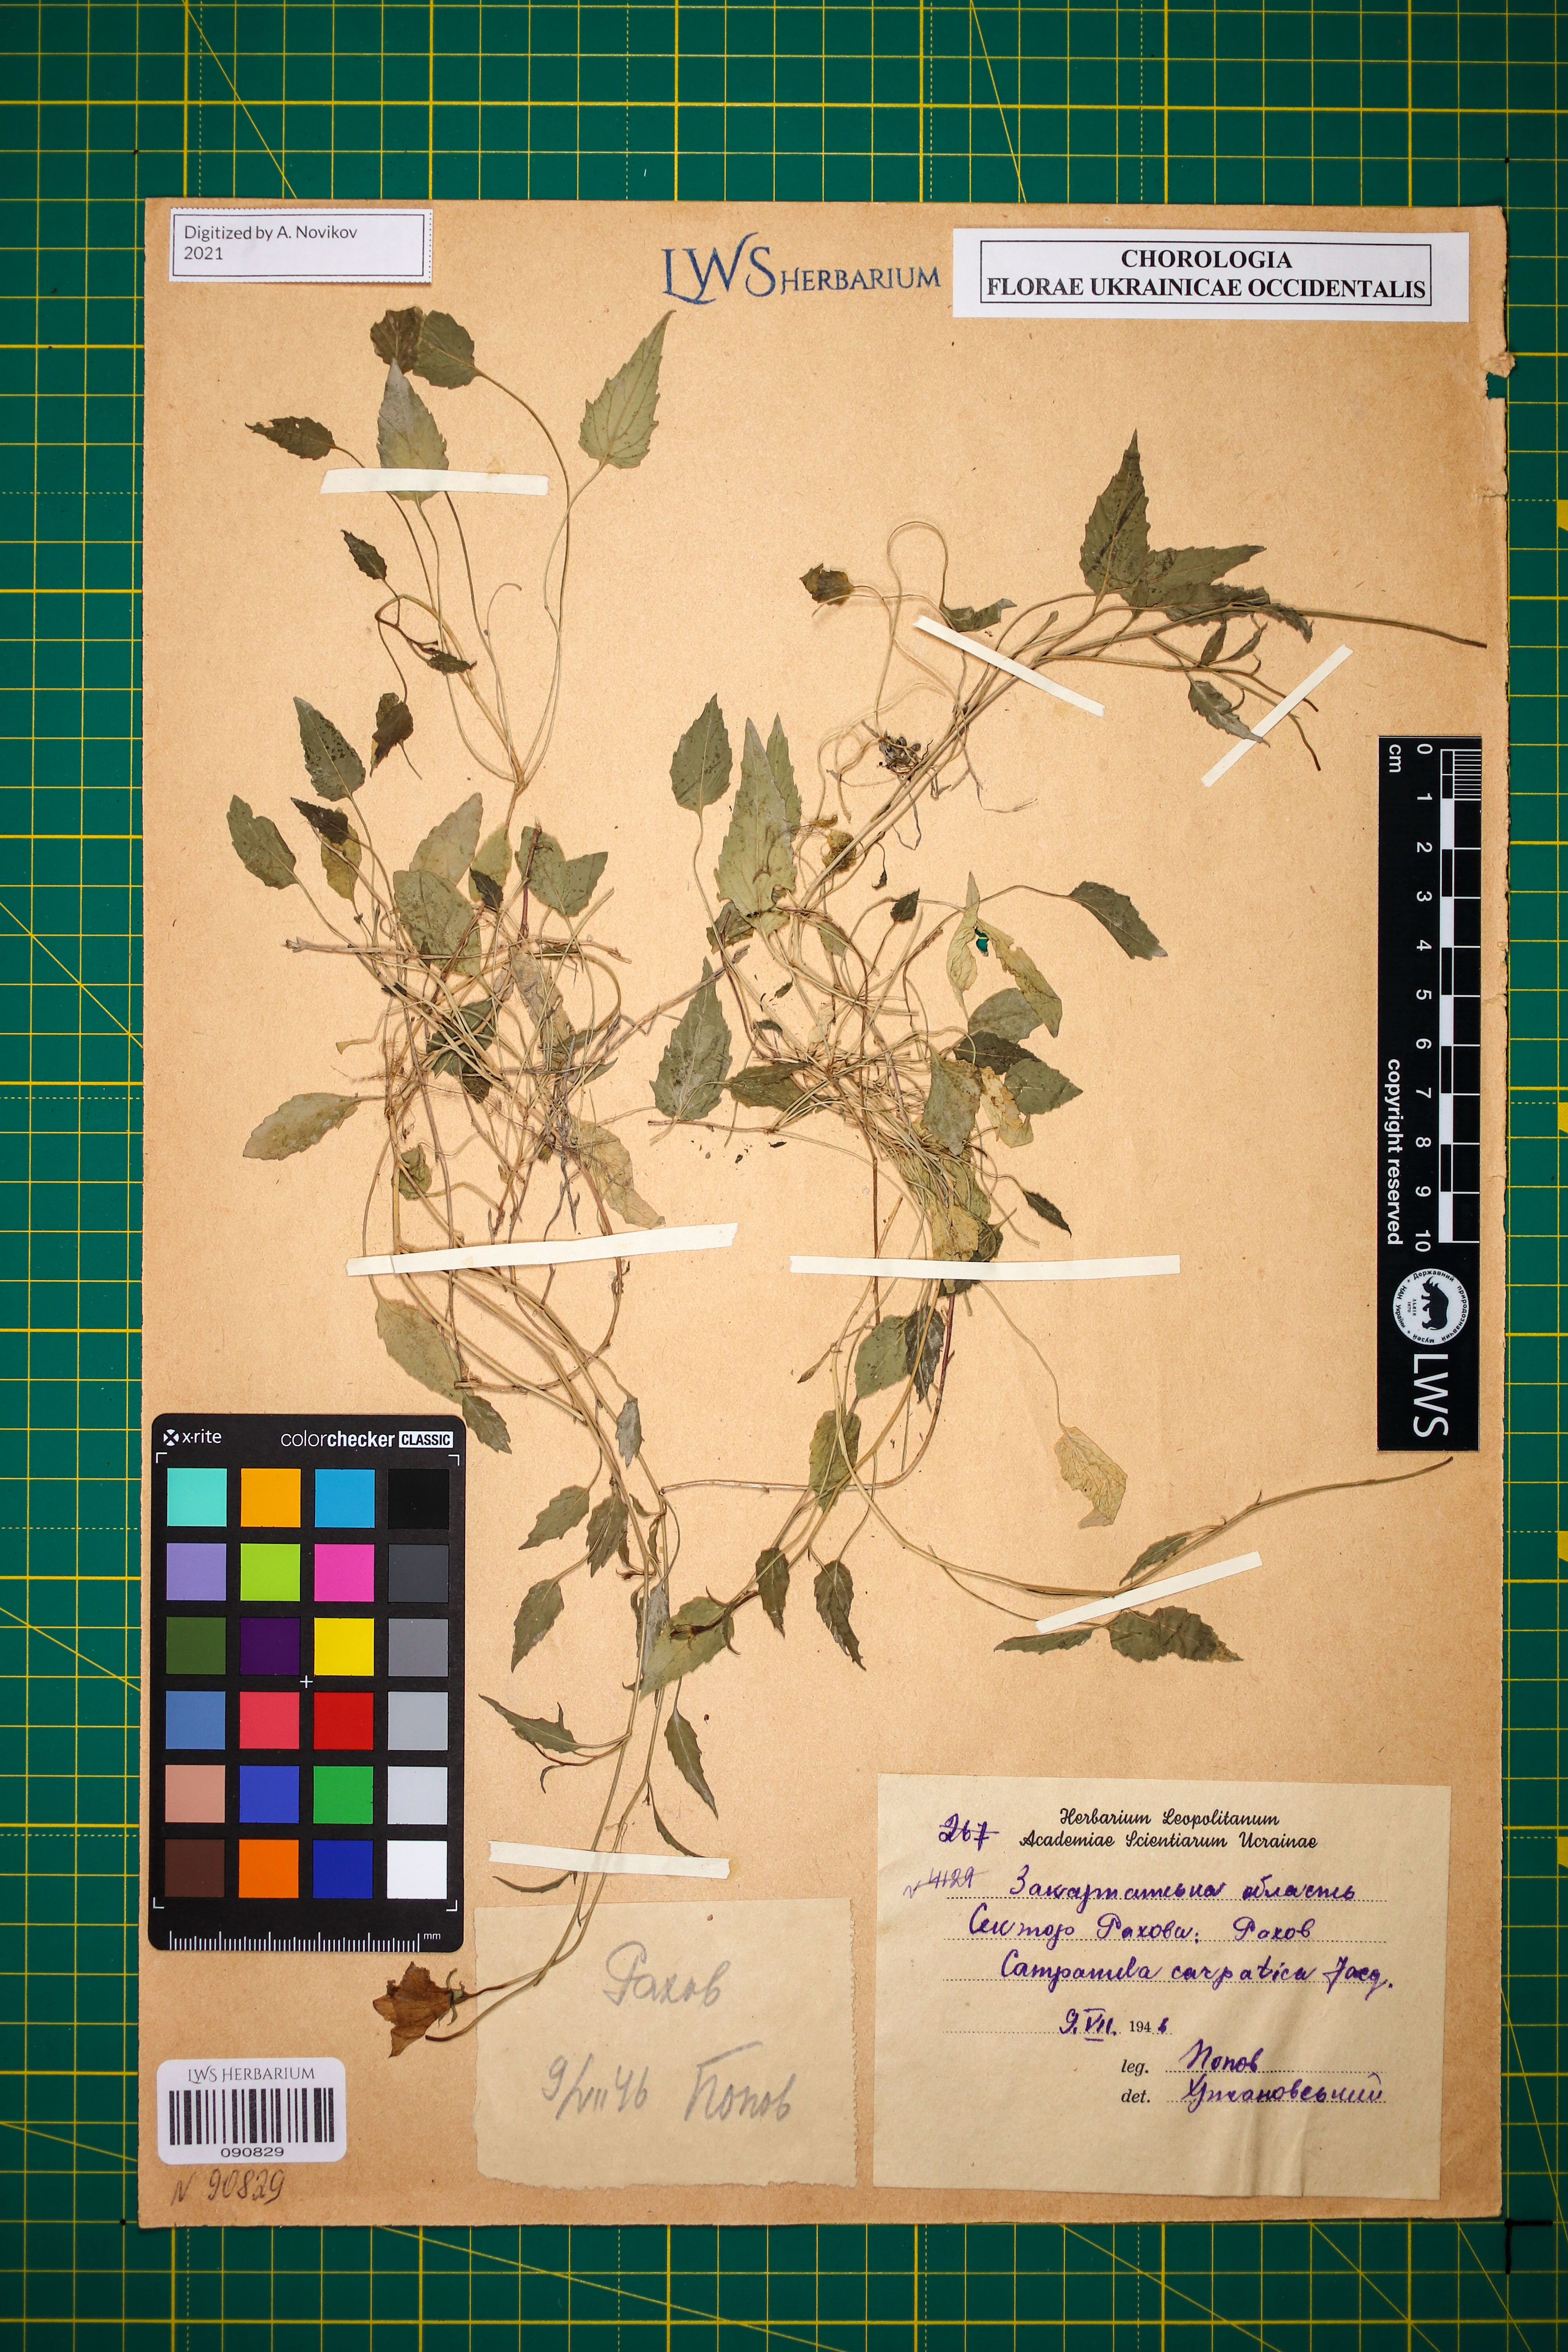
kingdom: Plantae
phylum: Tracheophyta
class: Magnoliopsida
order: Asterales
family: Campanulaceae
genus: Campanula
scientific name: Campanula carpatica
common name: Tussock bellflower
